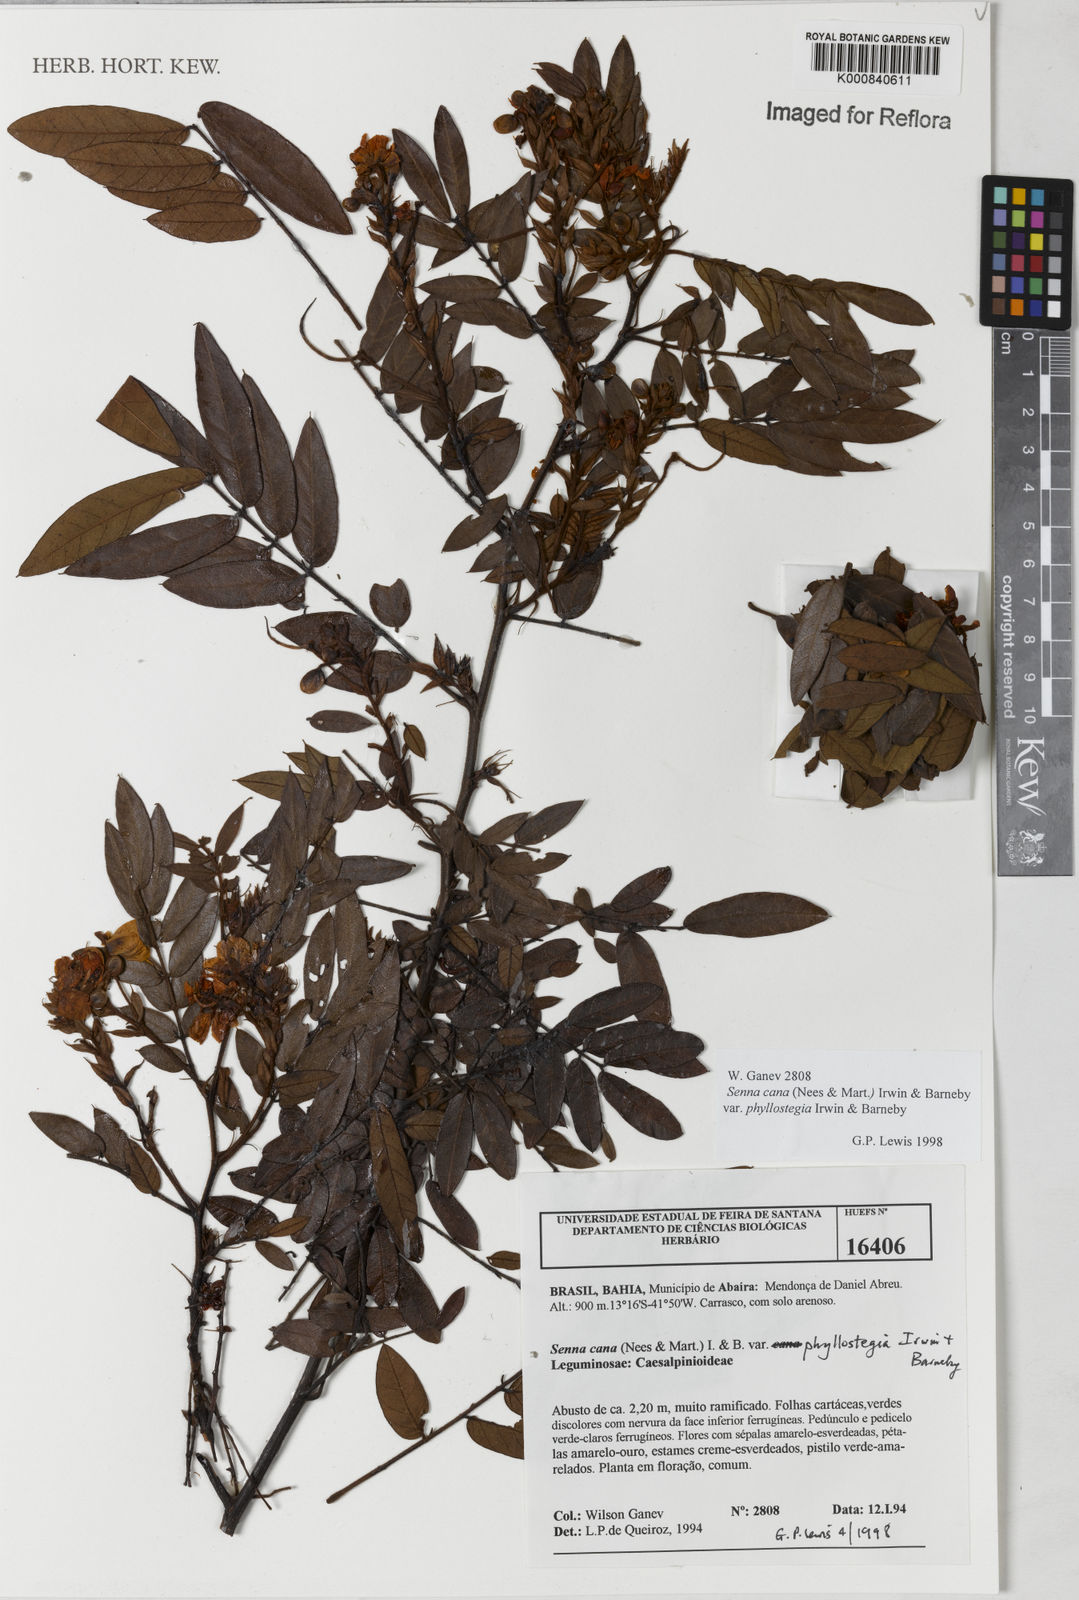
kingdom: Plantae
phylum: Tracheophyta
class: Magnoliopsida
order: Fabales
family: Fabaceae
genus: Senna
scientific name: Senna cana
